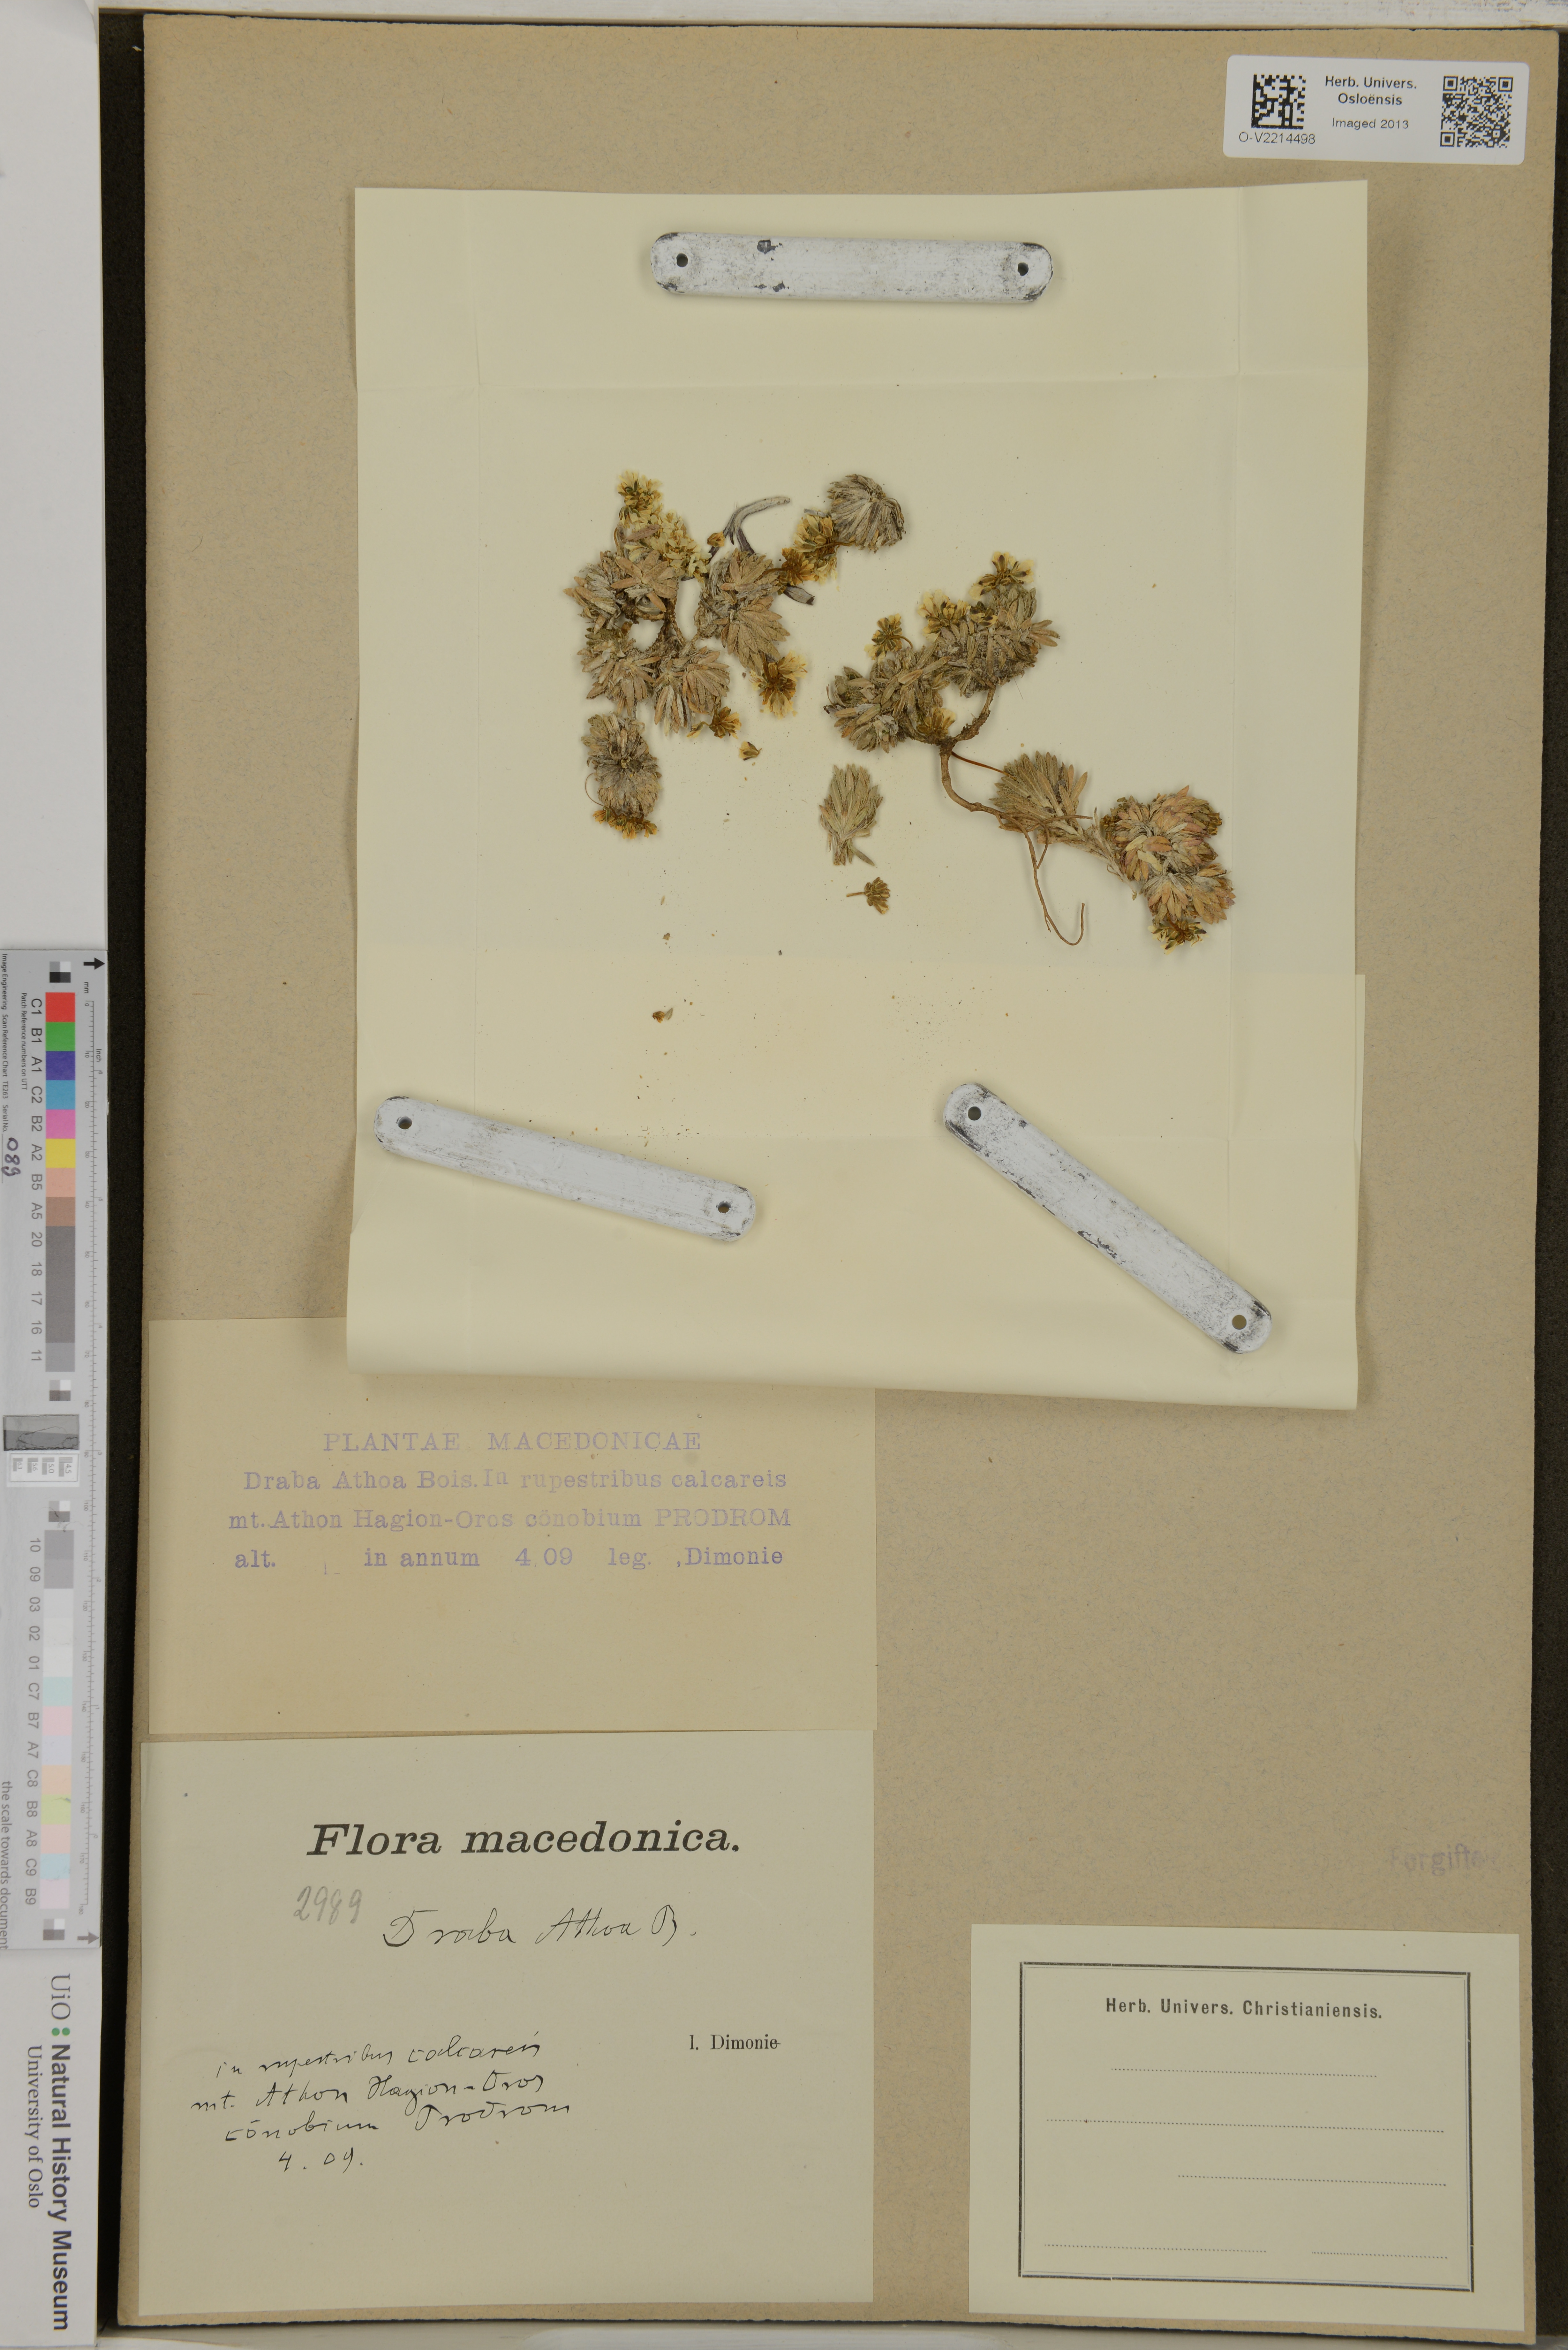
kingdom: Plantae
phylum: Tracheophyta
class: Magnoliopsida
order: Brassicales
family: Brassicaceae
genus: Draba
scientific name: Draba lasiocarpa
